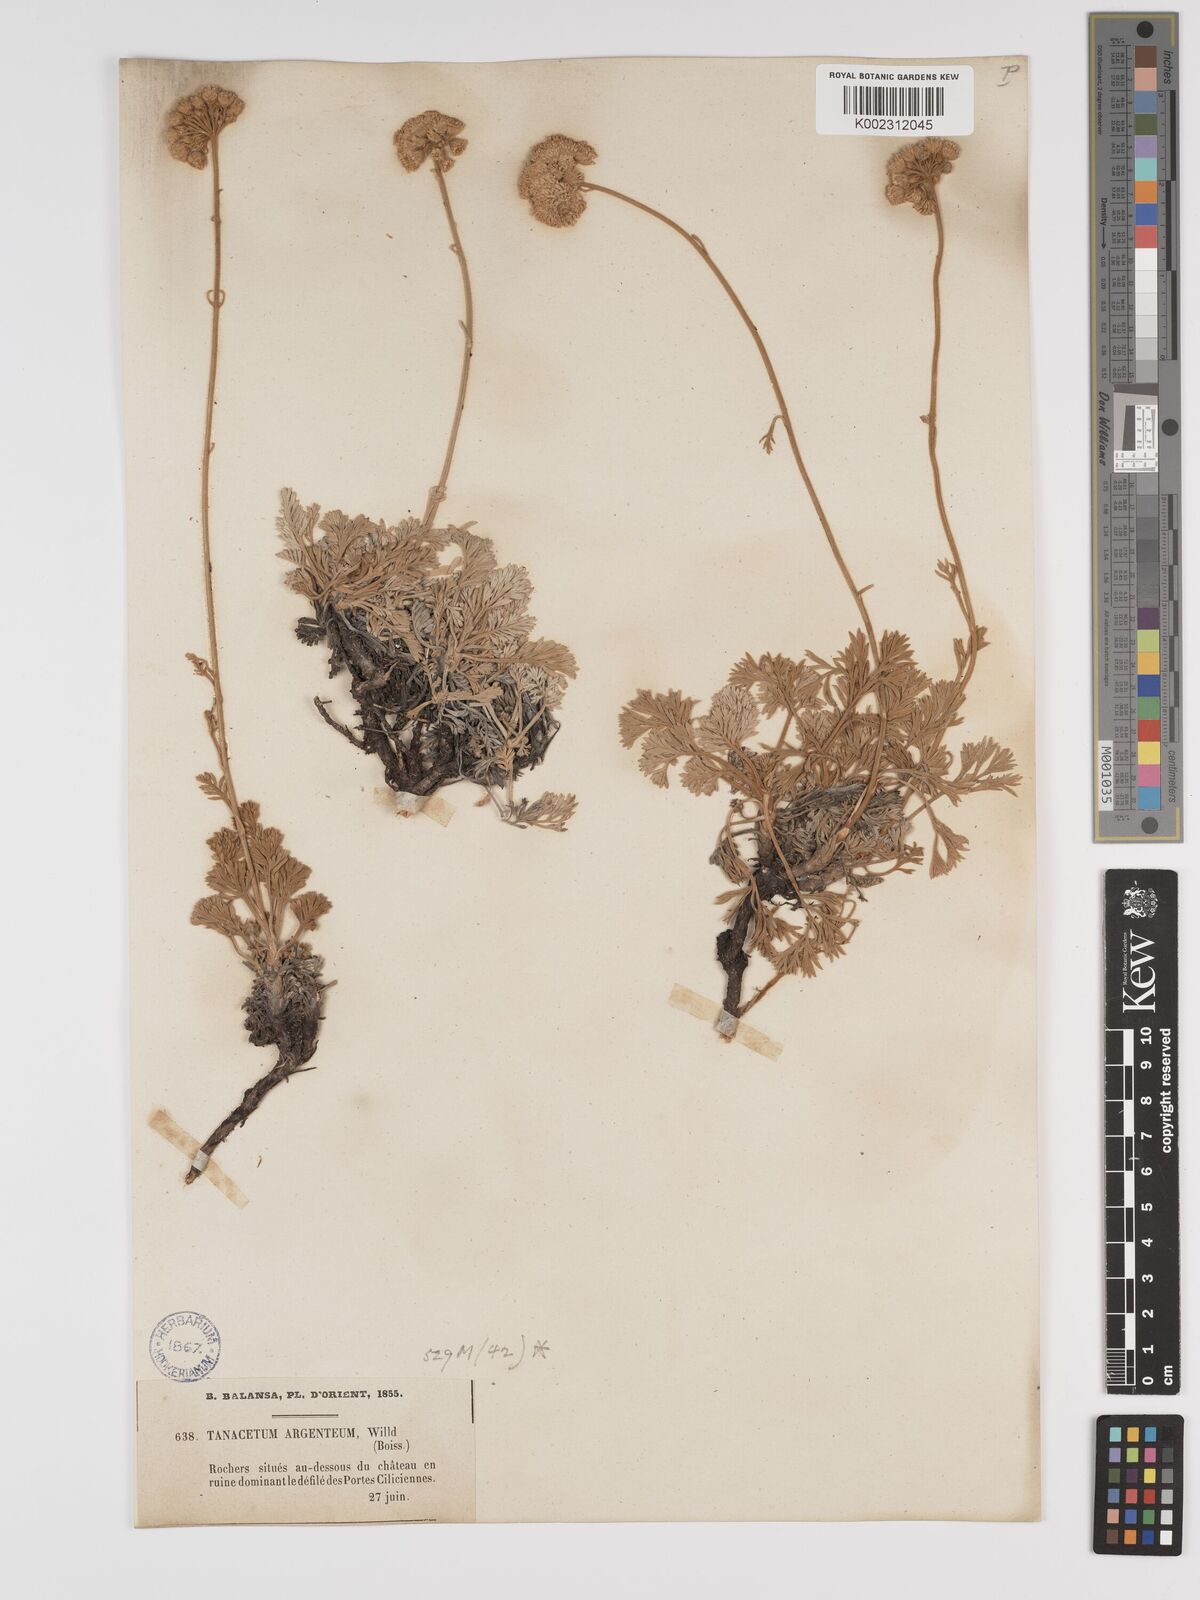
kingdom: Plantae
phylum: Tracheophyta
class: Magnoliopsida
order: Asterales
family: Asteraceae
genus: Tanacetum
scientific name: Tanacetum argenteum
